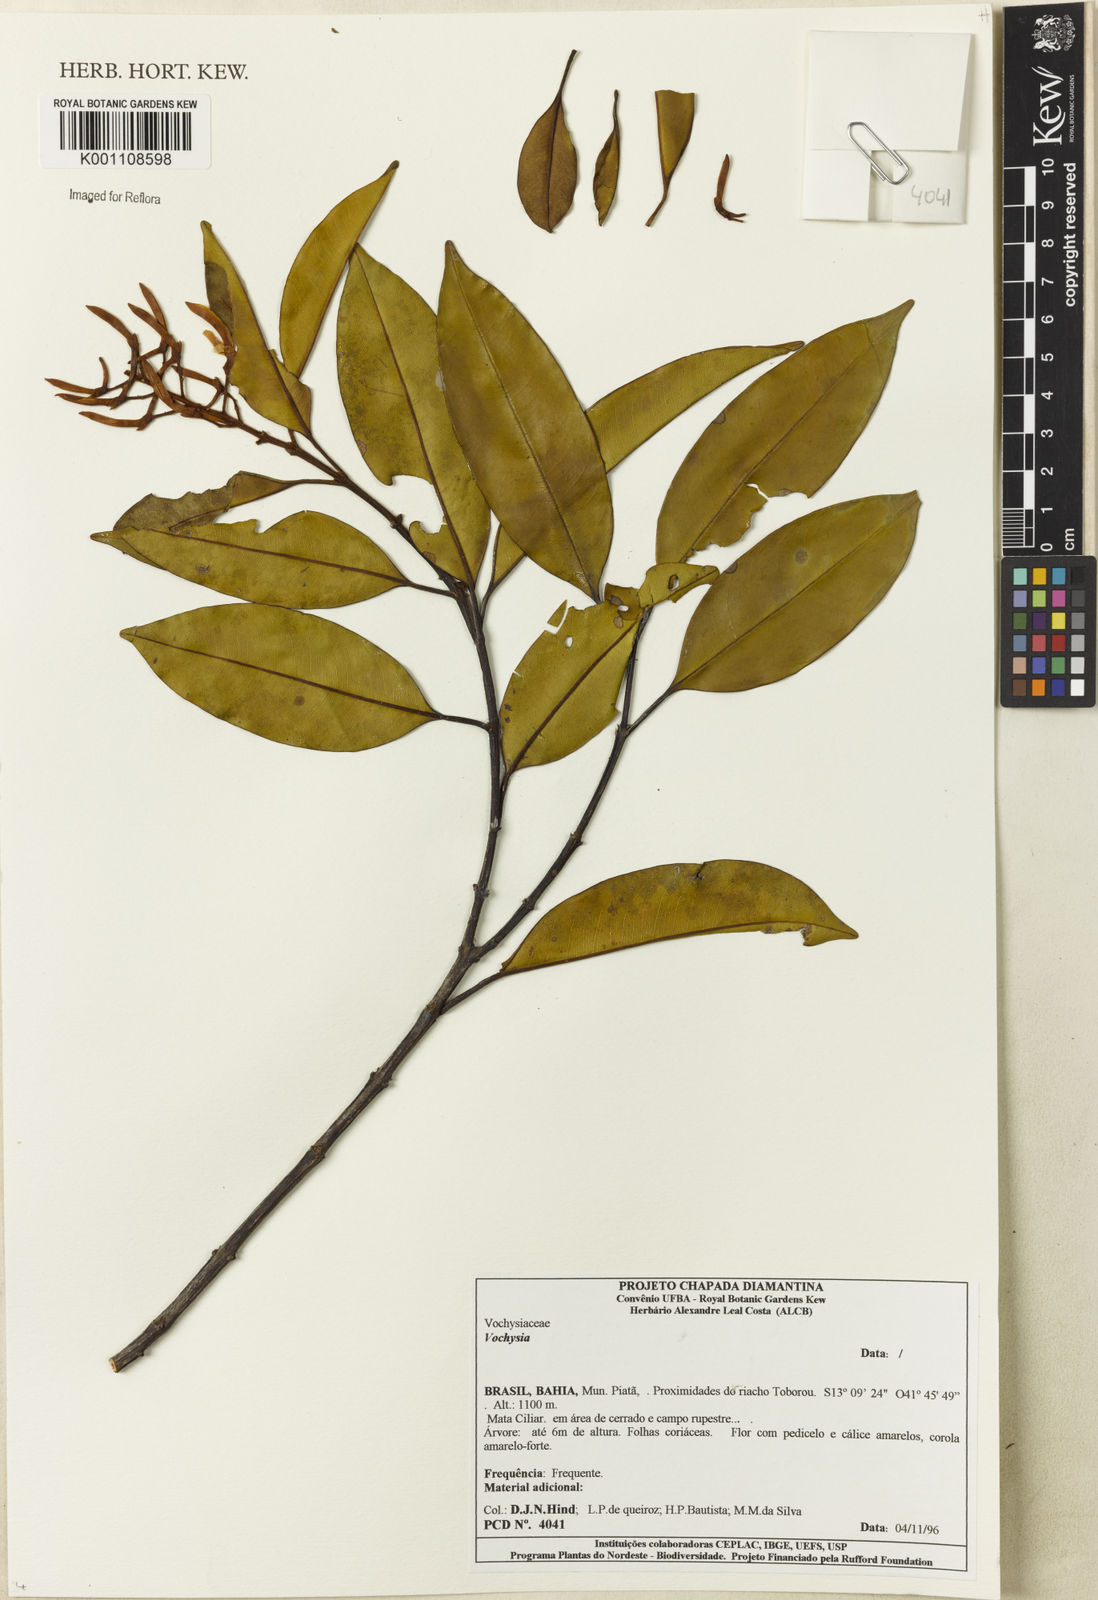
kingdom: Plantae
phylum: Tracheophyta
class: Magnoliopsida
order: Myrtales
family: Vochysiaceae
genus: Vochysia
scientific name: Vochysia
